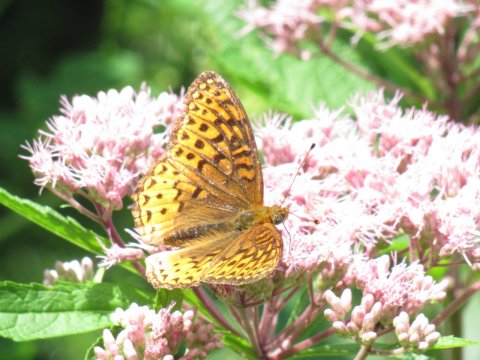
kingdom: Animalia
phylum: Arthropoda
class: Insecta
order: Lepidoptera
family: Nymphalidae
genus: Speyeria
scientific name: Speyeria atlantis
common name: Atlantis Fritillary
